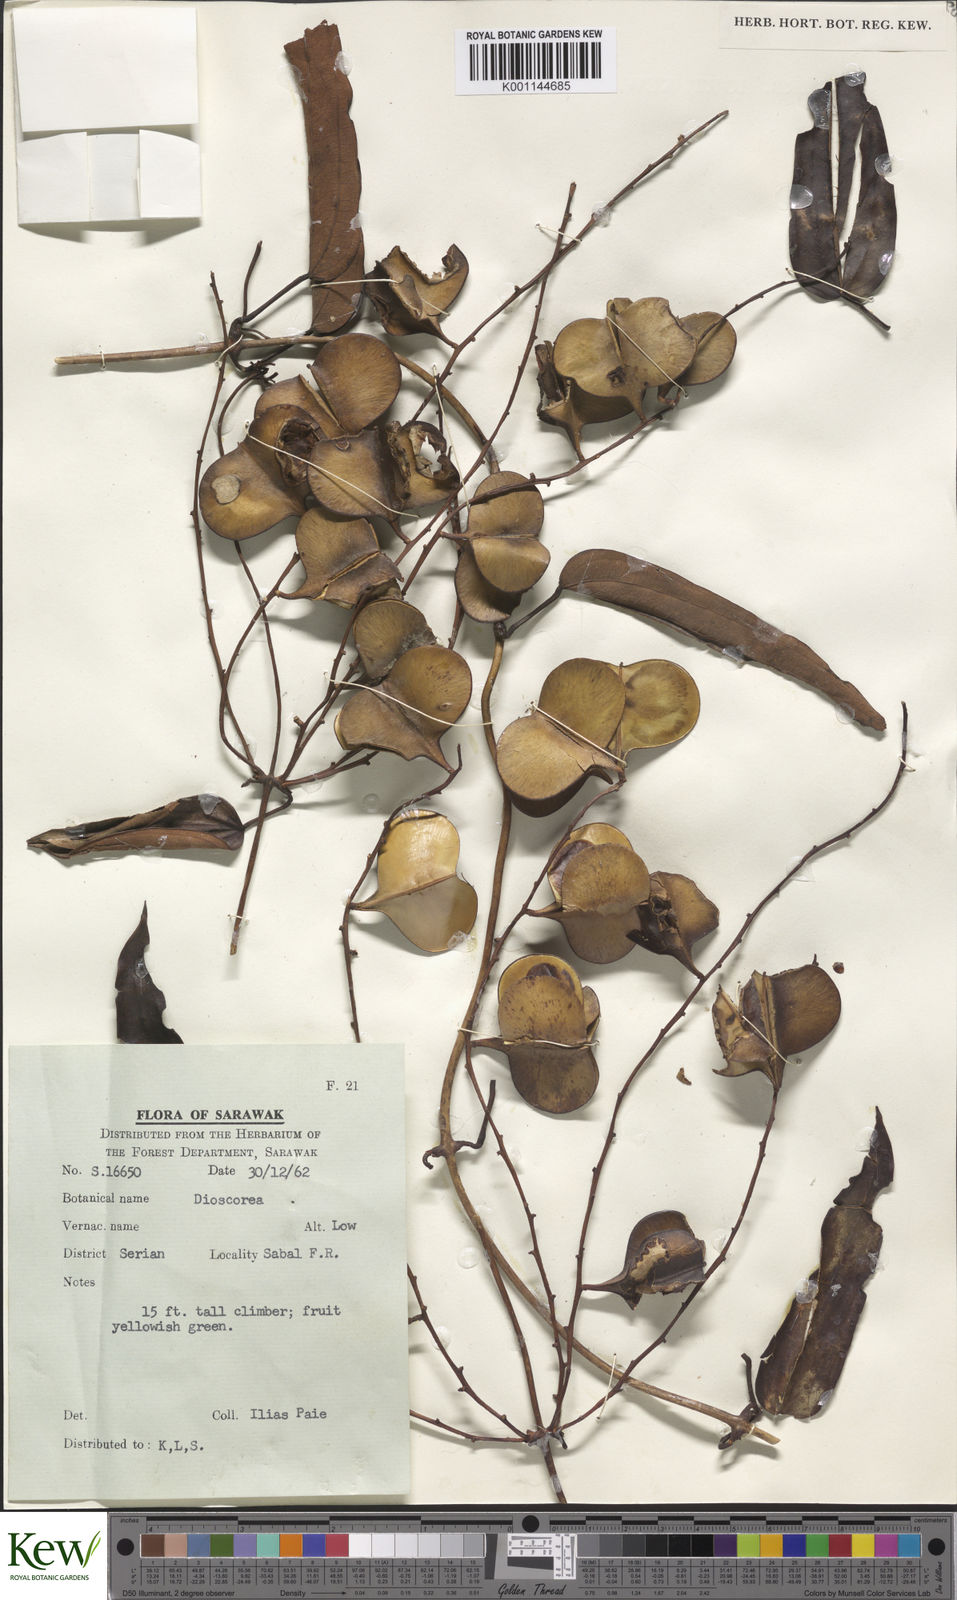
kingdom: Plantae
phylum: Tracheophyta
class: Liliopsida
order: Dioscoreales
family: Dioscoreaceae
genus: Dioscorea
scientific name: Dioscorea
